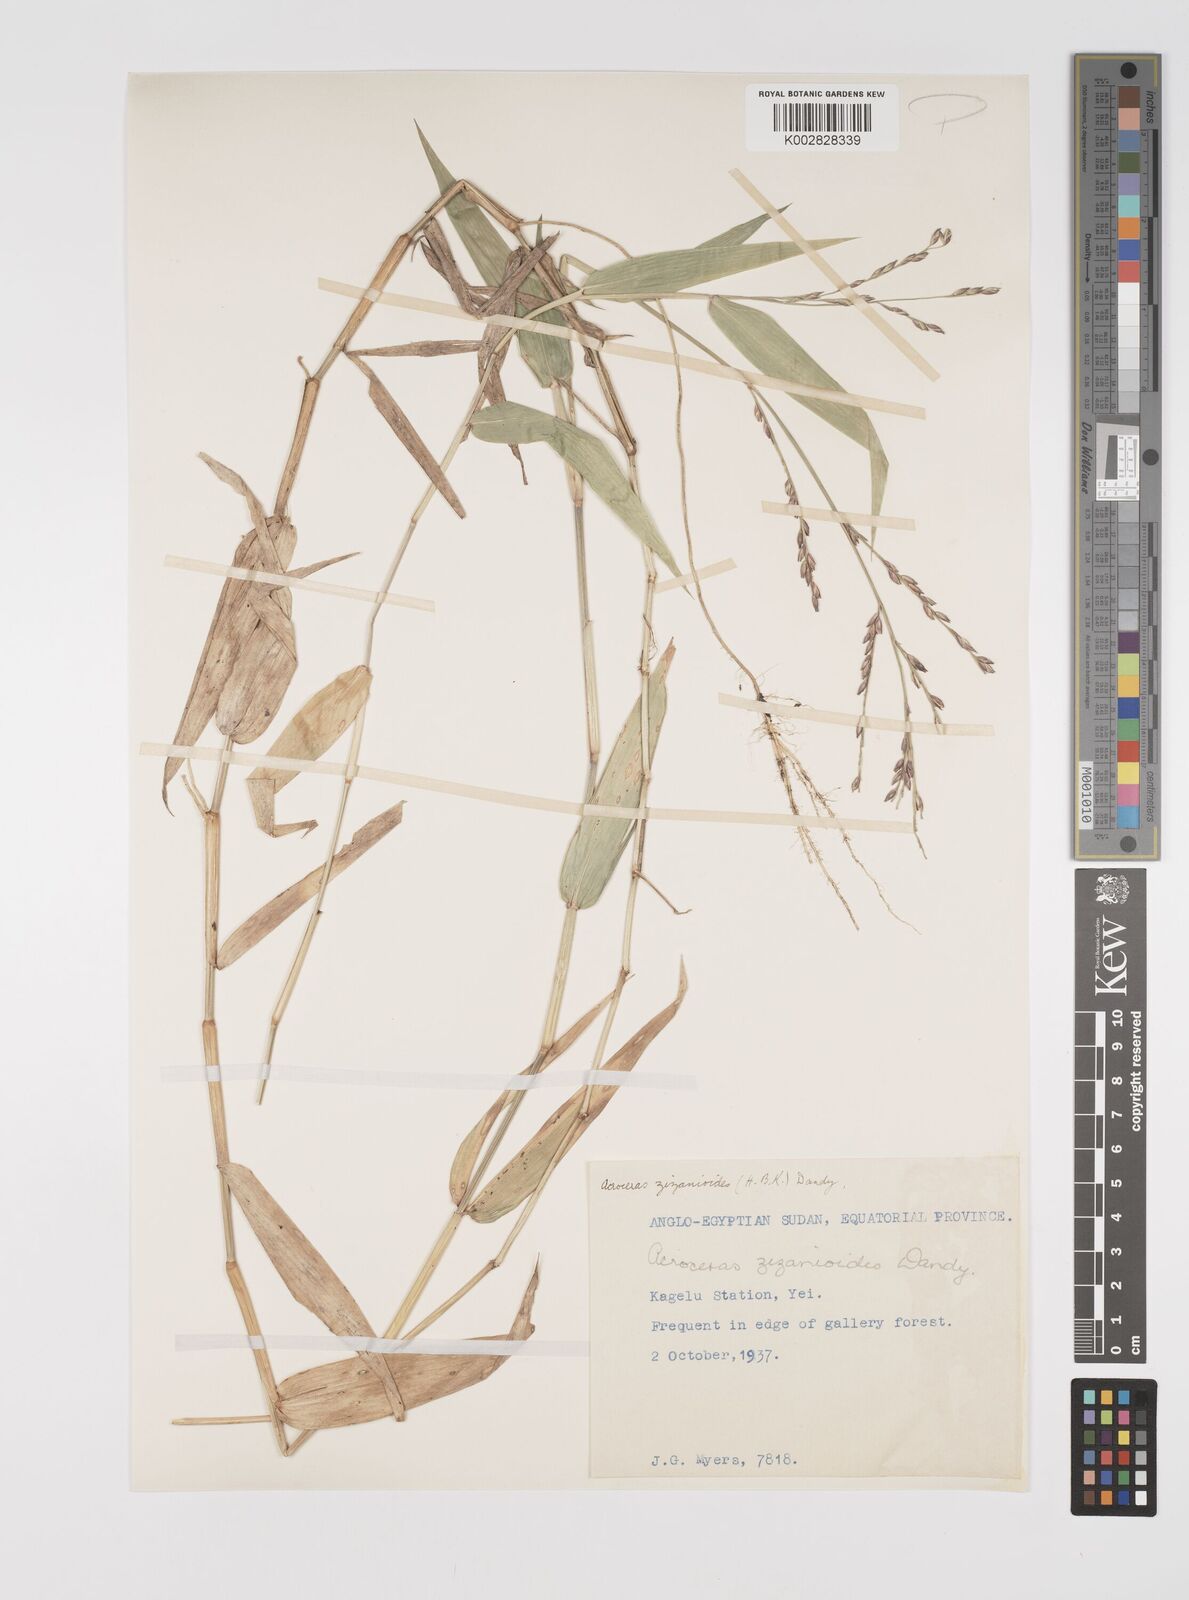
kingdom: Plantae
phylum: Tracheophyta
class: Liliopsida
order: Poales
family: Poaceae
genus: Acroceras
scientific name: Acroceras zizanioides
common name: Oat grass
